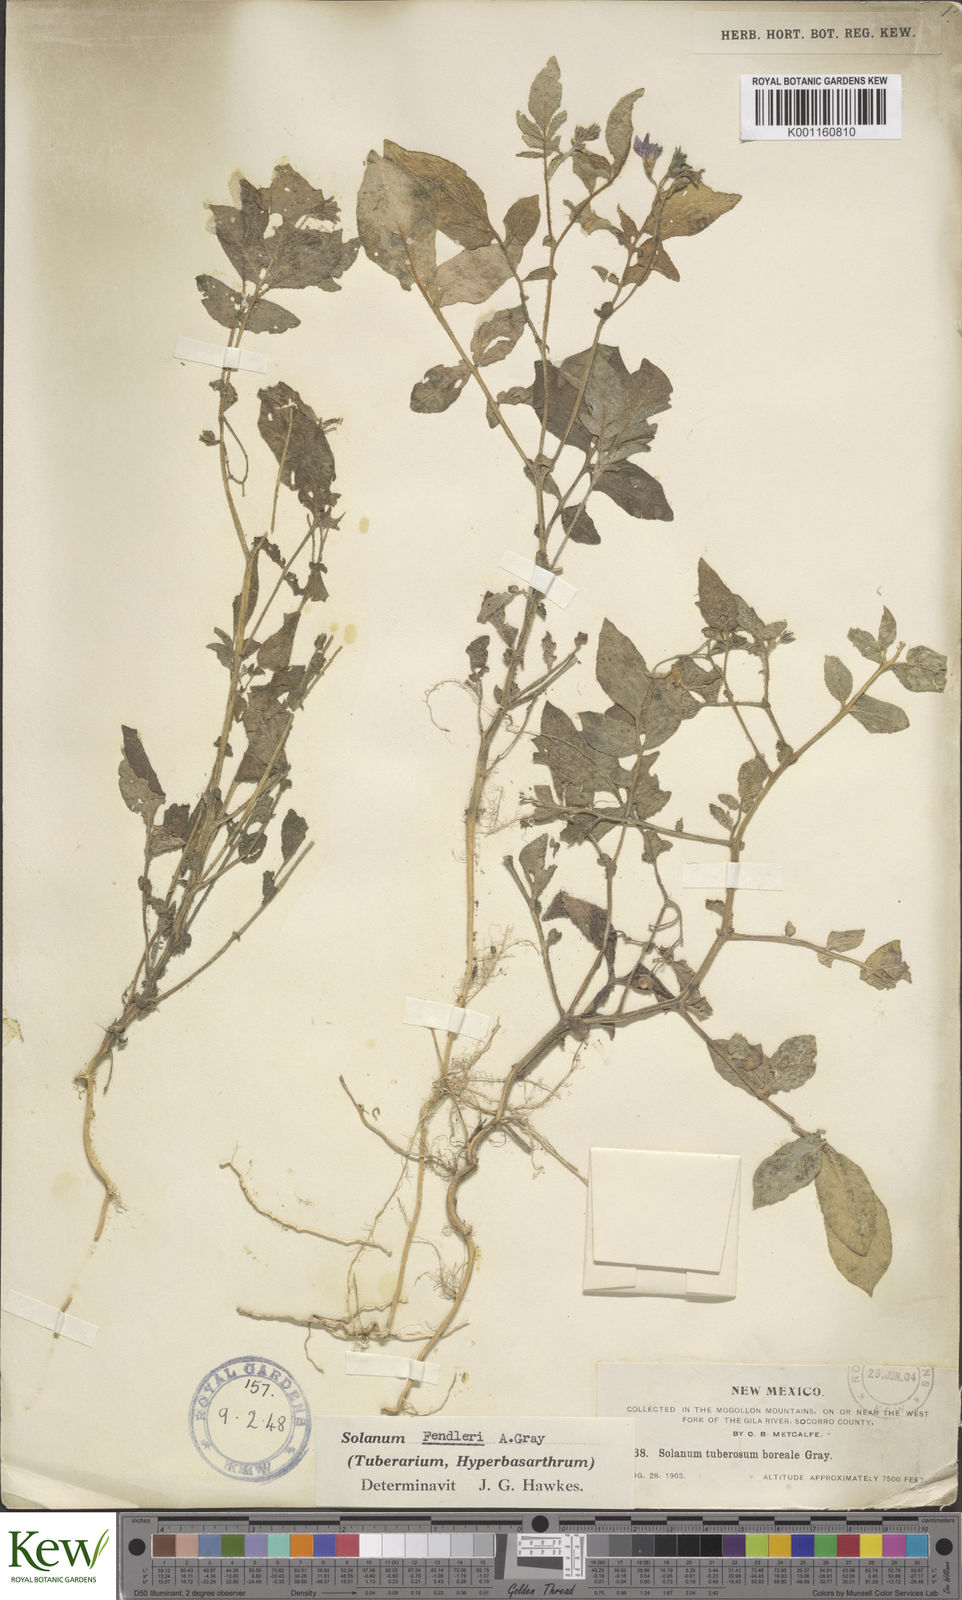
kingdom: Plantae
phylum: Tracheophyta
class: Magnoliopsida
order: Solanales
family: Solanaceae
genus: Solanum
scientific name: Solanum stoloniferum
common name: Fendler's nighshade
